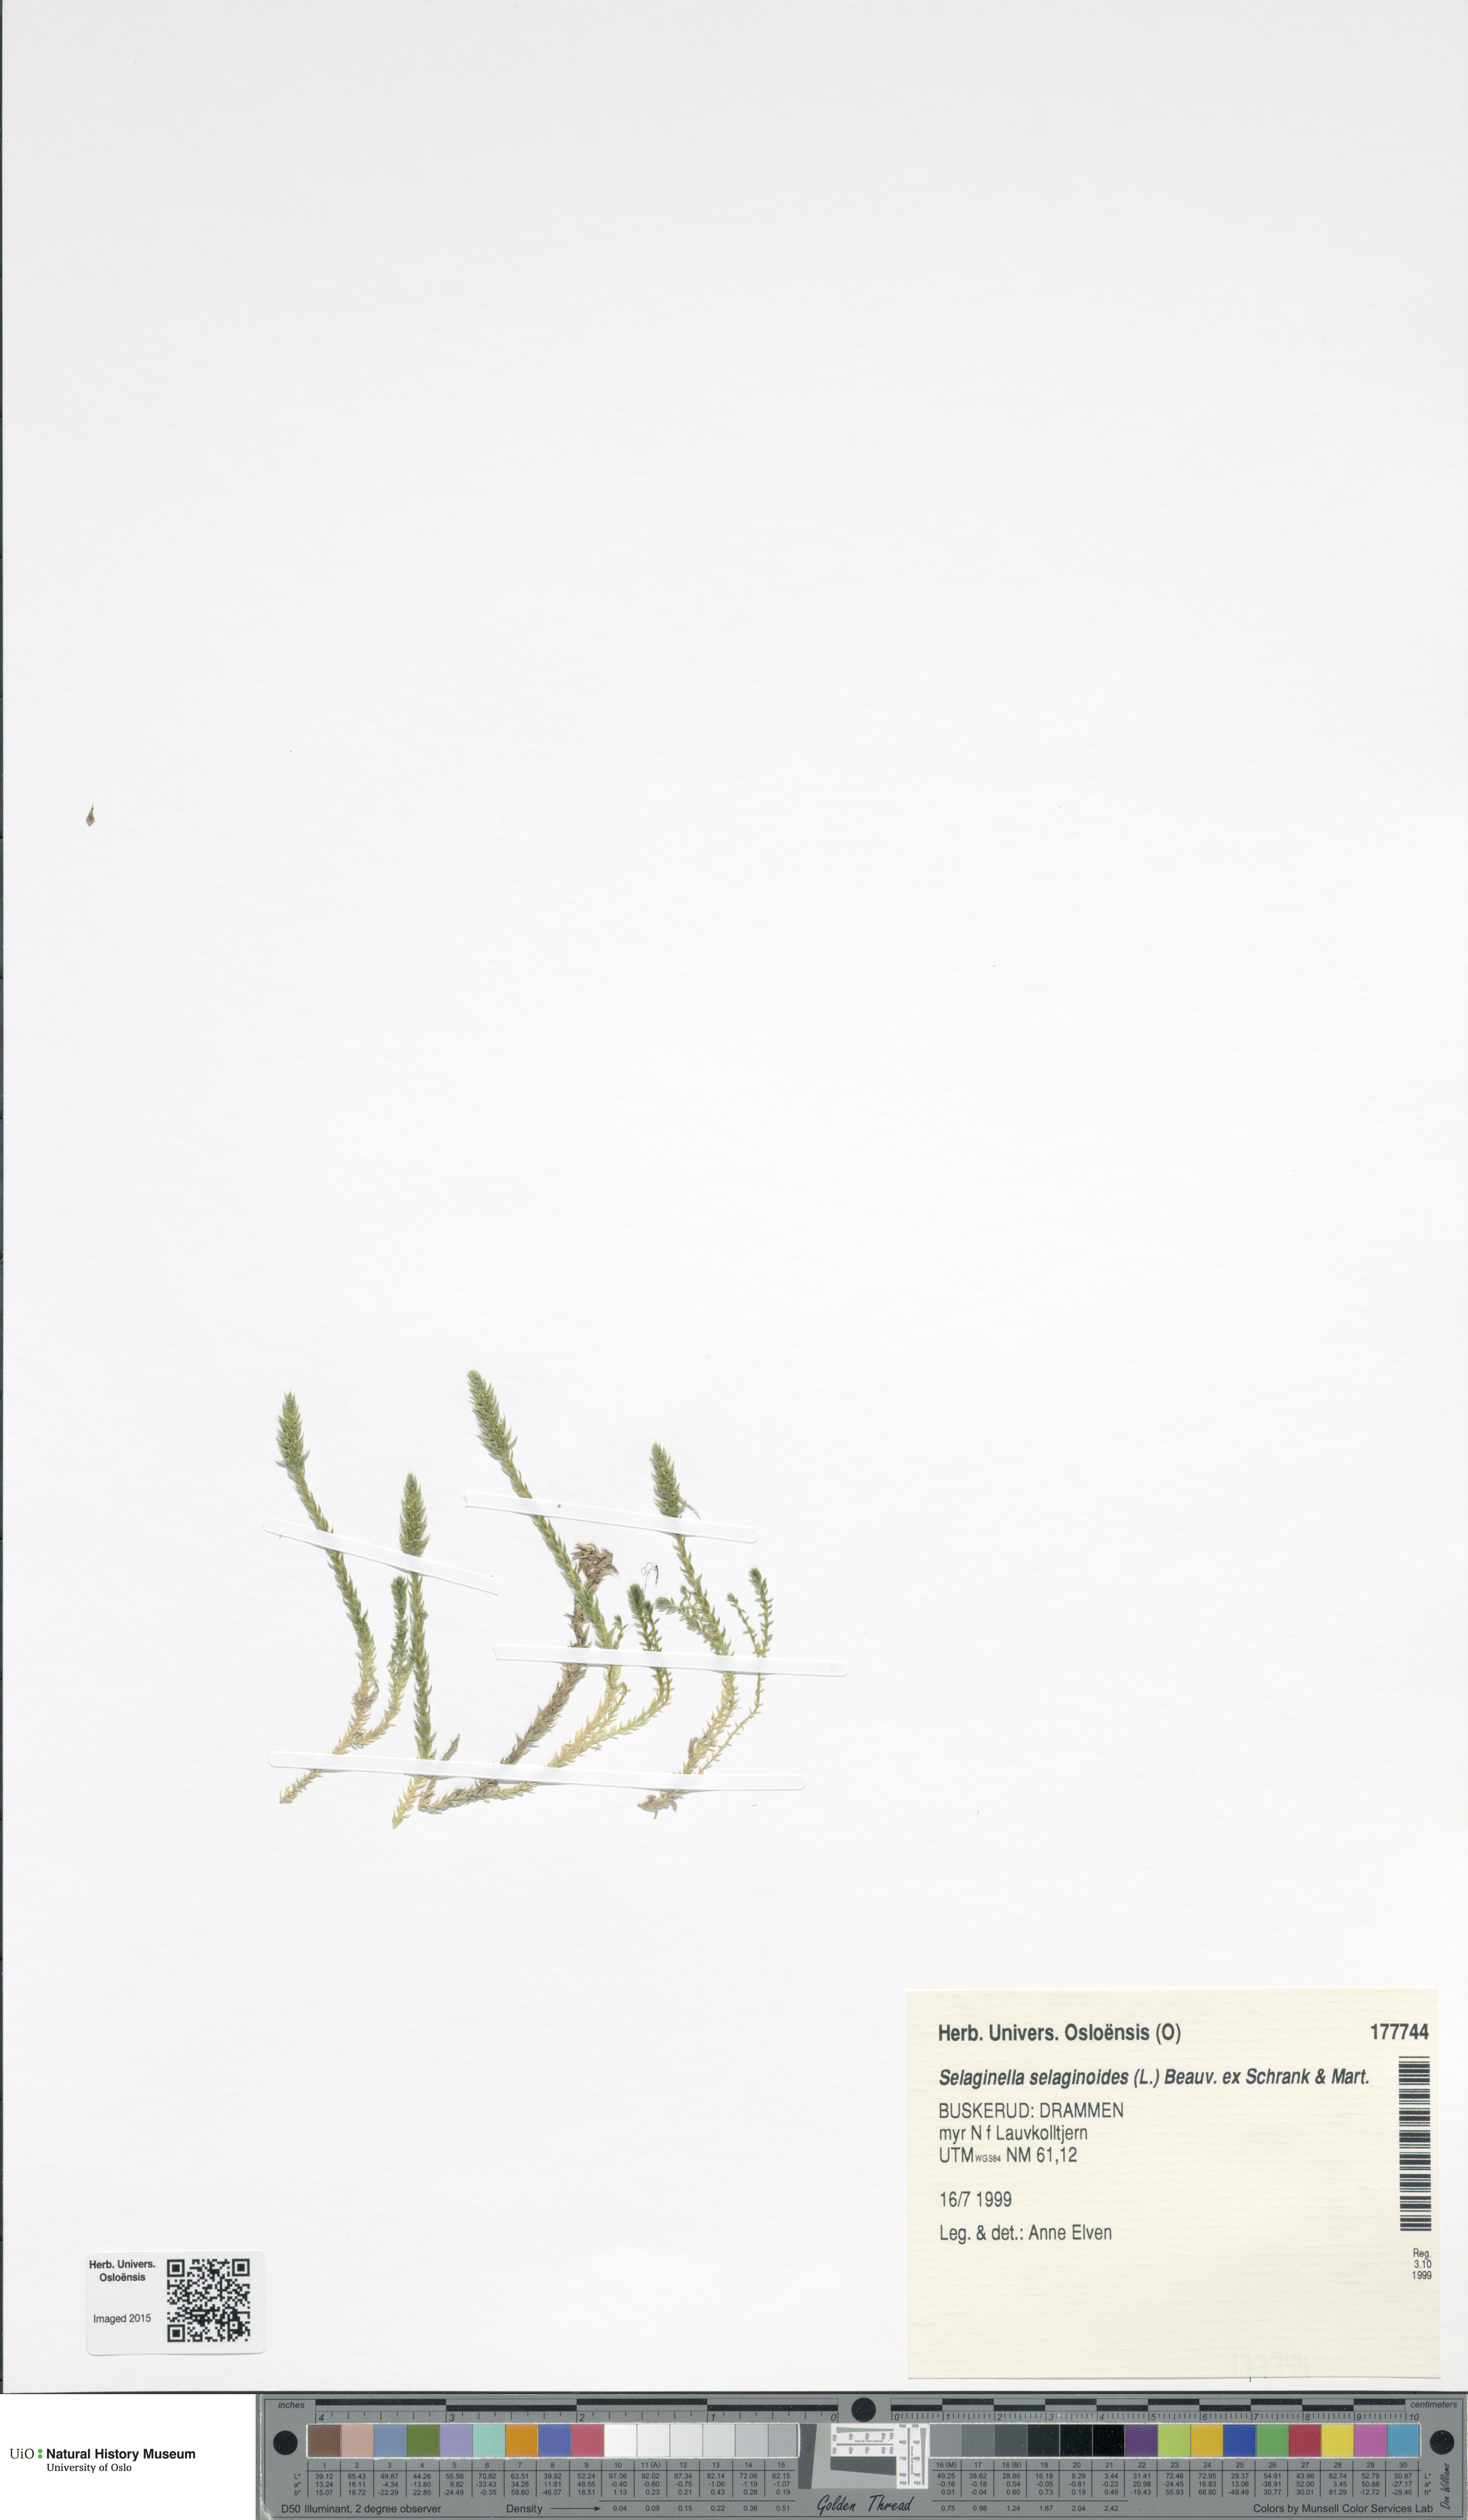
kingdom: Plantae
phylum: Tracheophyta
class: Lycopodiopsida
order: Selaginellales
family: Selaginellaceae
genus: Selaginella
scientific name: Selaginella selaginoides
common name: Prickly mountain-moss
